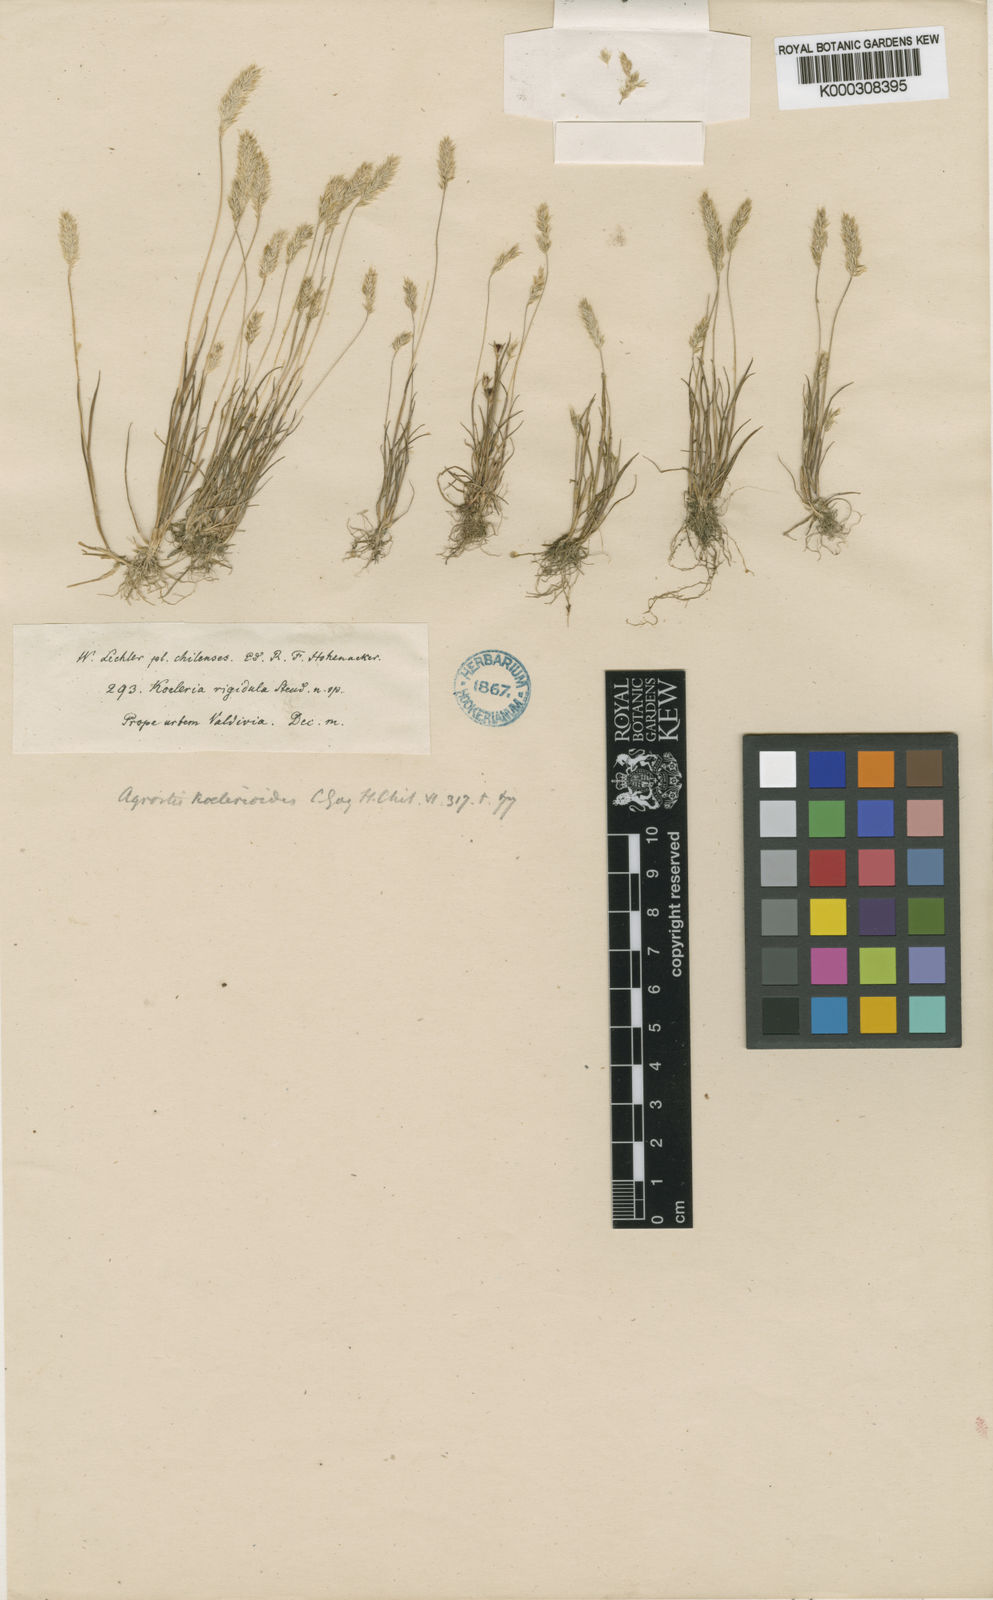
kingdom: Plantae
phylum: Tracheophyta
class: Liliopsida
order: Poales
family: Poaceae
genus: Agrostis
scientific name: Agrostis koelerioides
